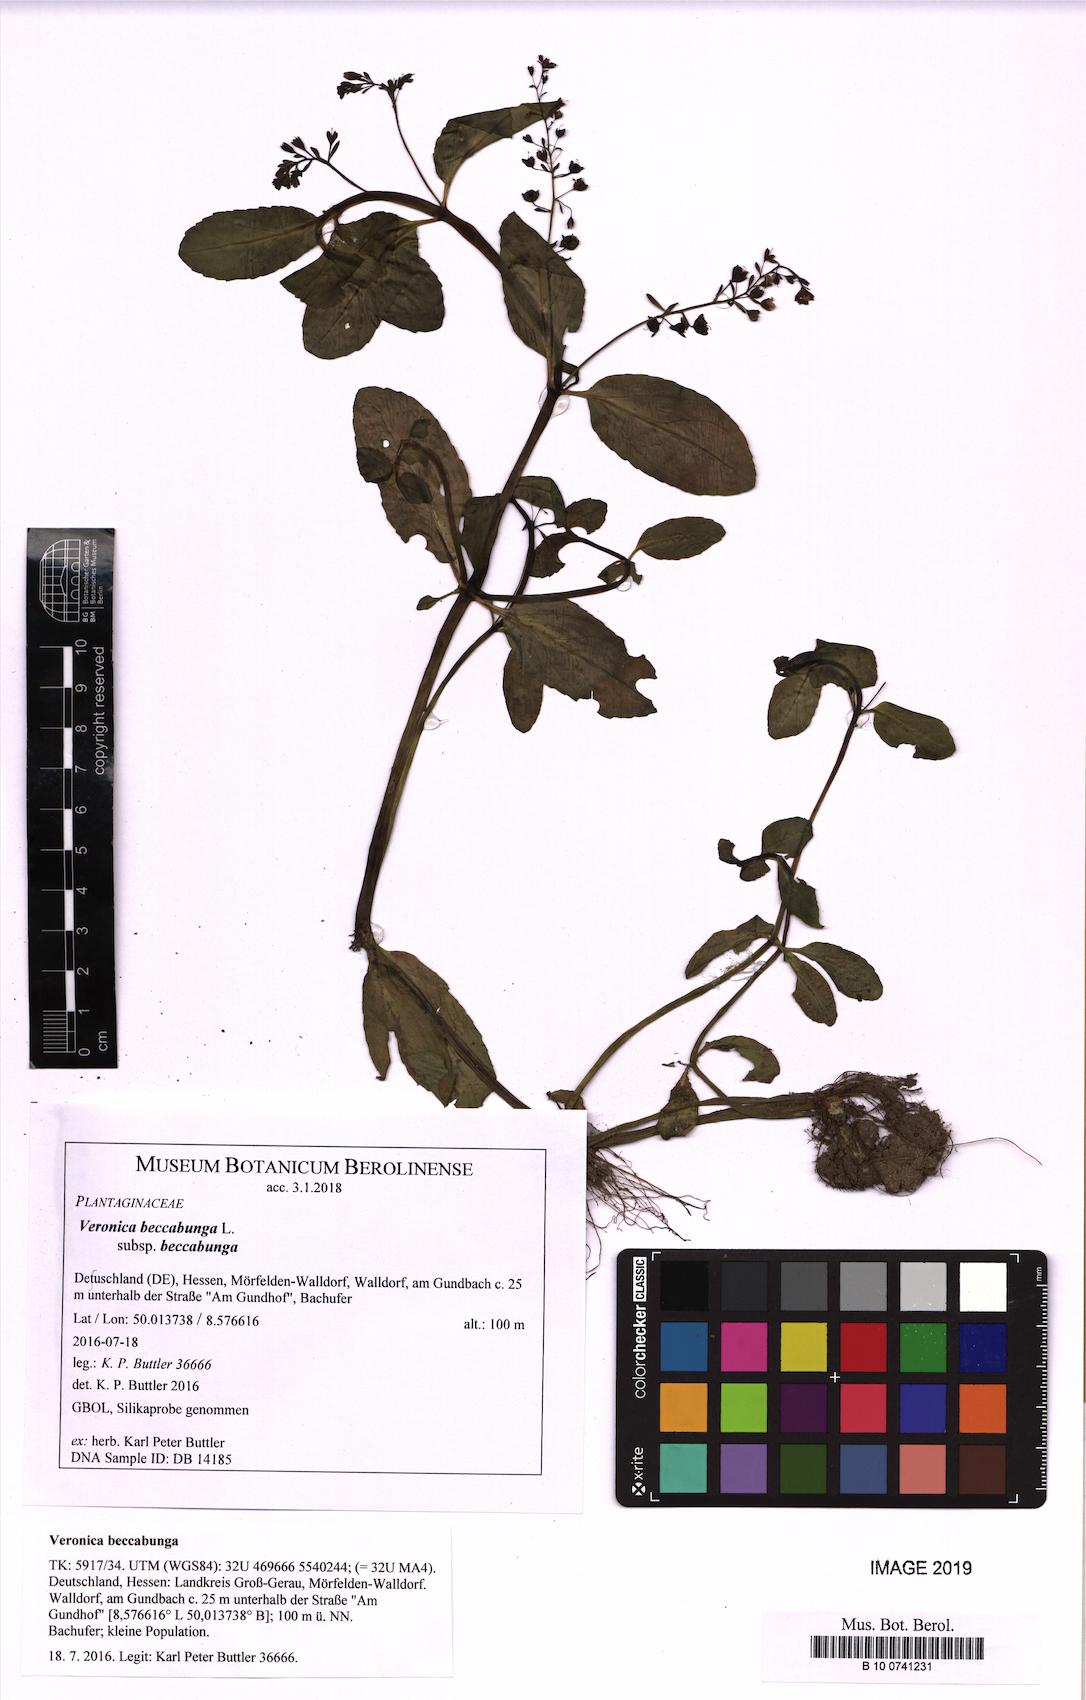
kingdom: Plantae
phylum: Tracheophyta
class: Magnoliopsida
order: Lamiales
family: Plantaginaceae
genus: Veronica
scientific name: Veronica beccabunga
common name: Brooklime
